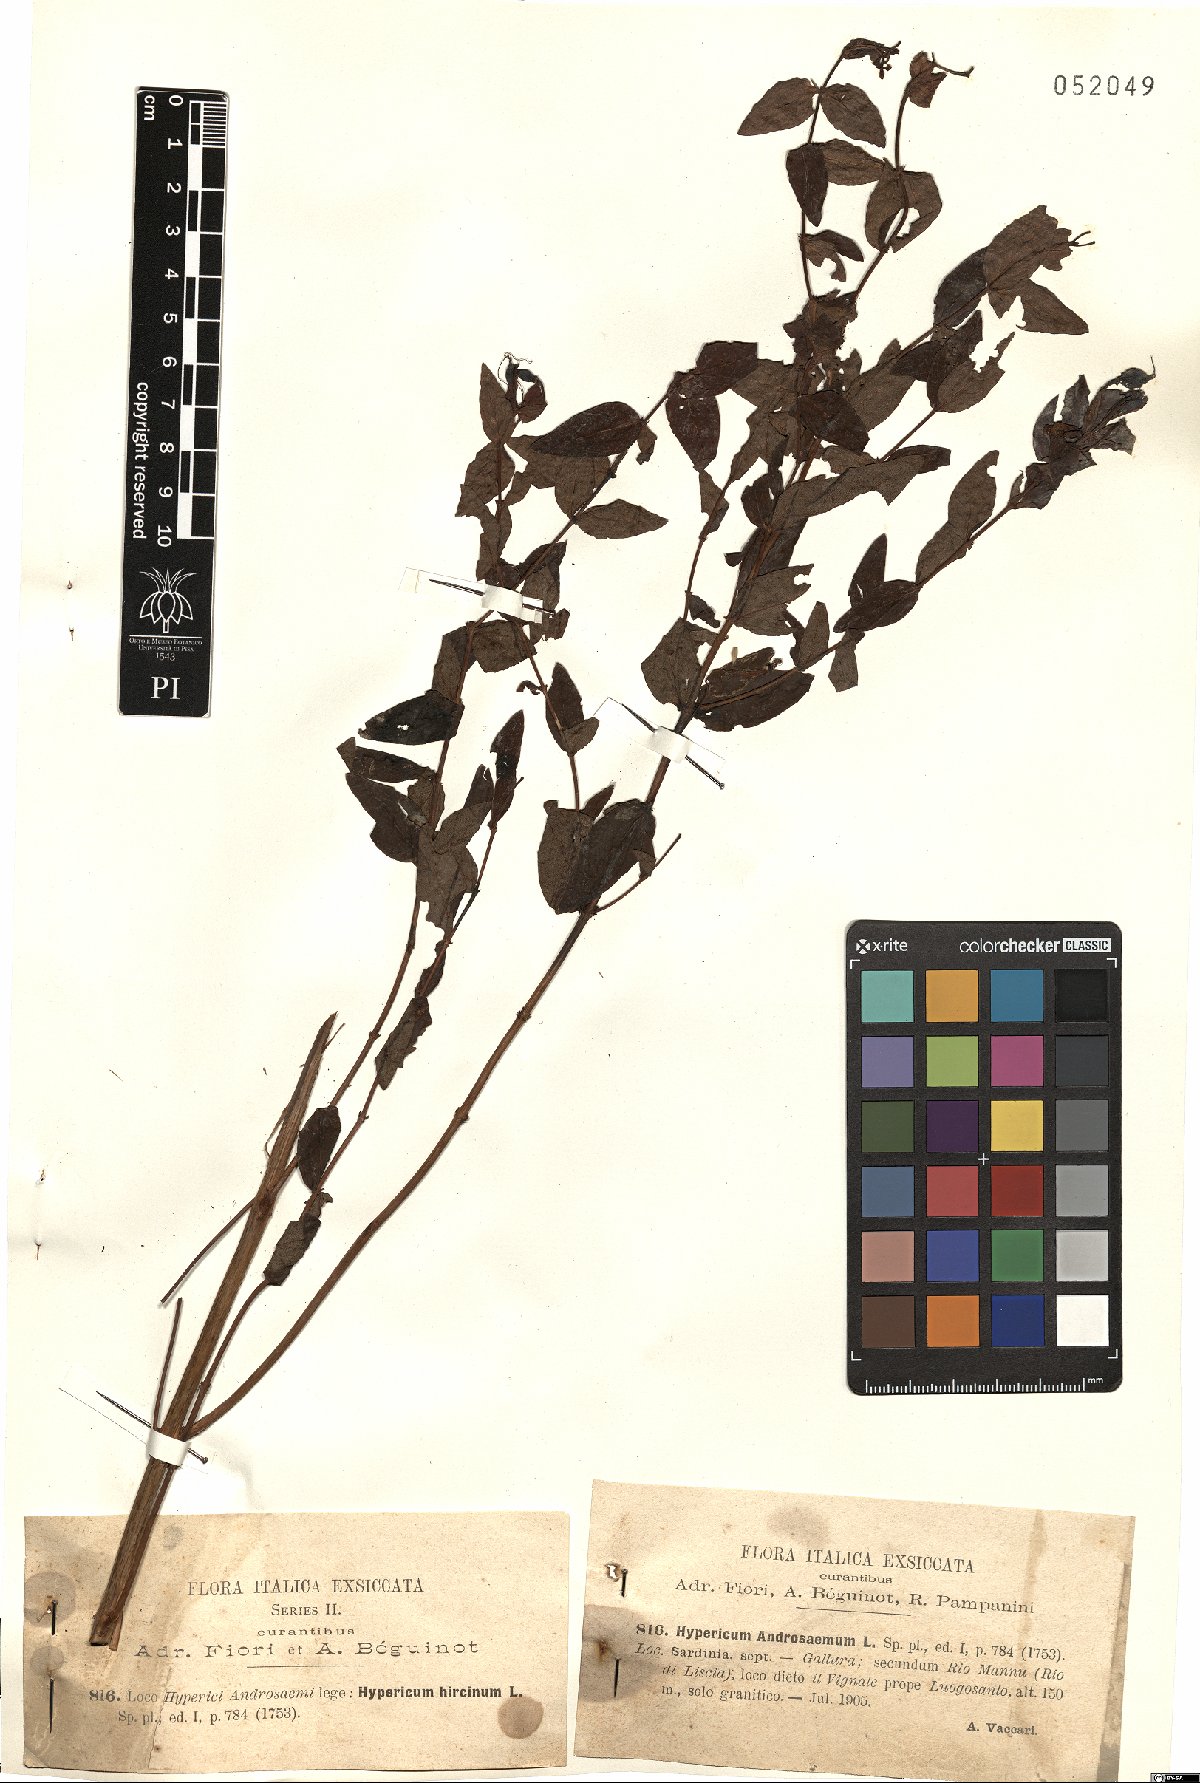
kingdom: Plantae
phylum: Tracheophyta
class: Magnoliopsida
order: Malpighiales
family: Hypericaceae
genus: Hypericum
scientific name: Hypericum androsaemum
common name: Sweet-amber
